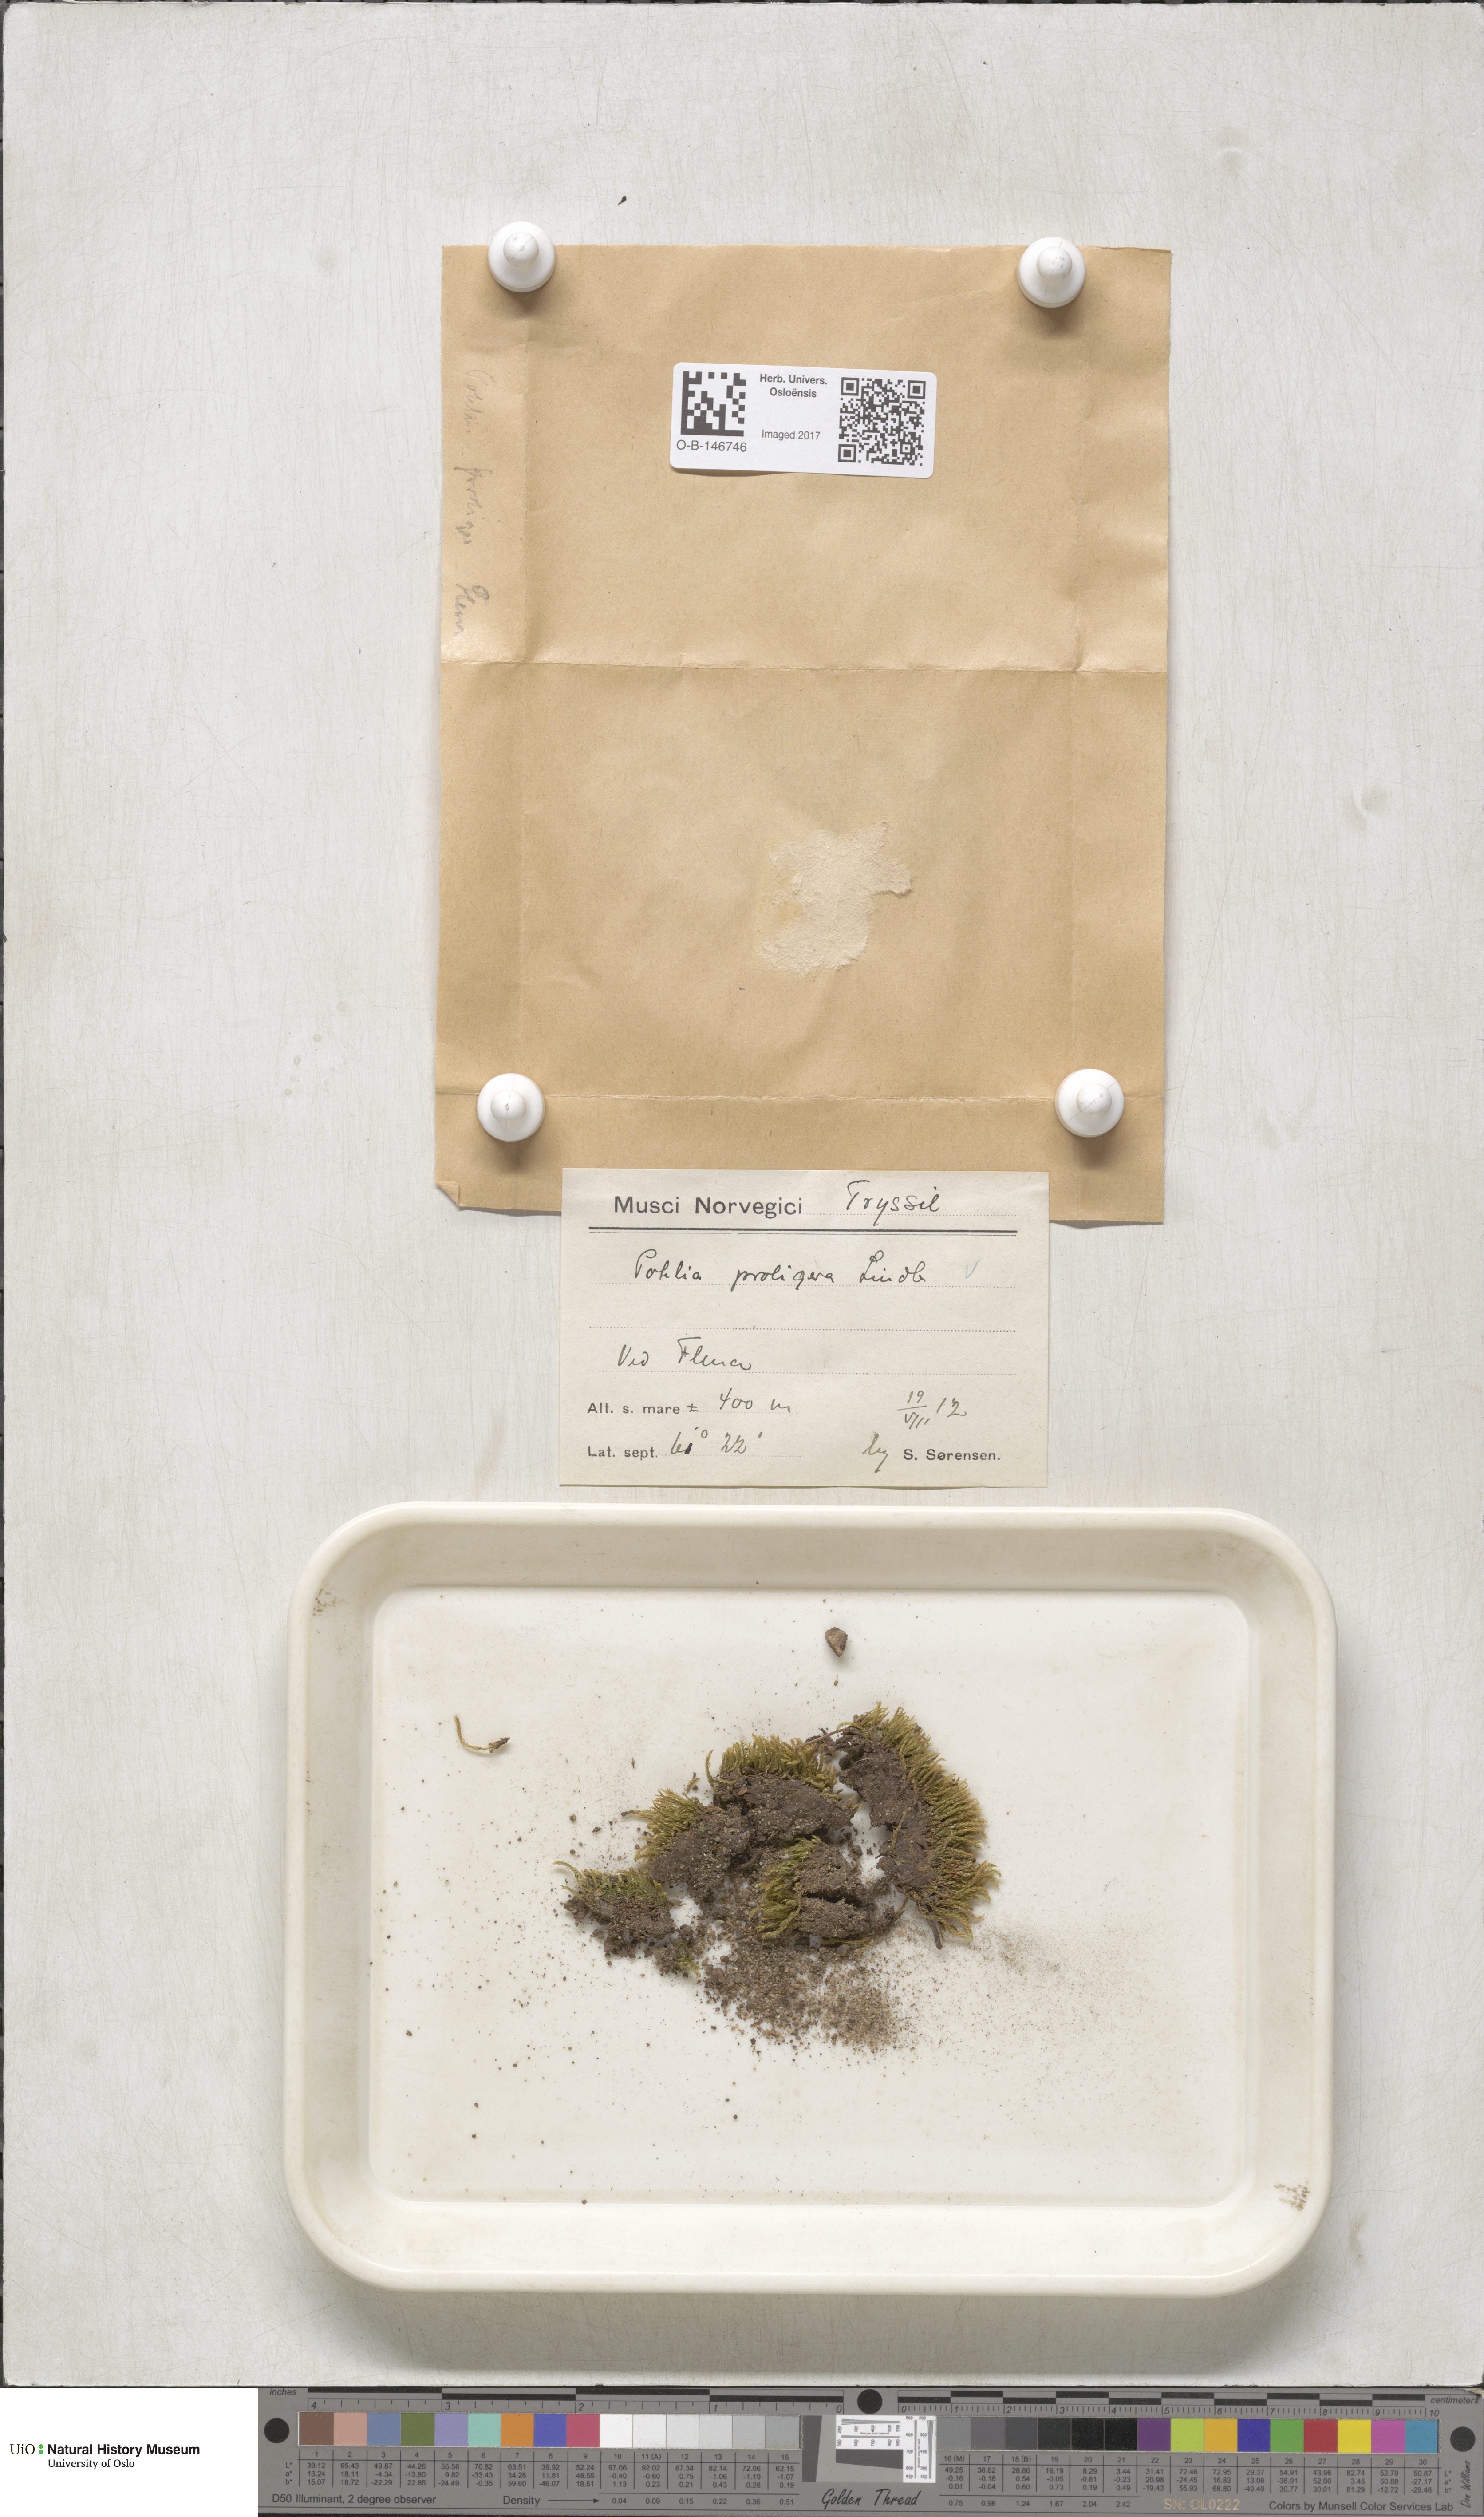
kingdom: Plantae
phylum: Bryophyta
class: Bryopsida
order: Bryales
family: Mniaceae
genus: Pohlia
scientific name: Pohlia proligera
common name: Cottony nodding moss
